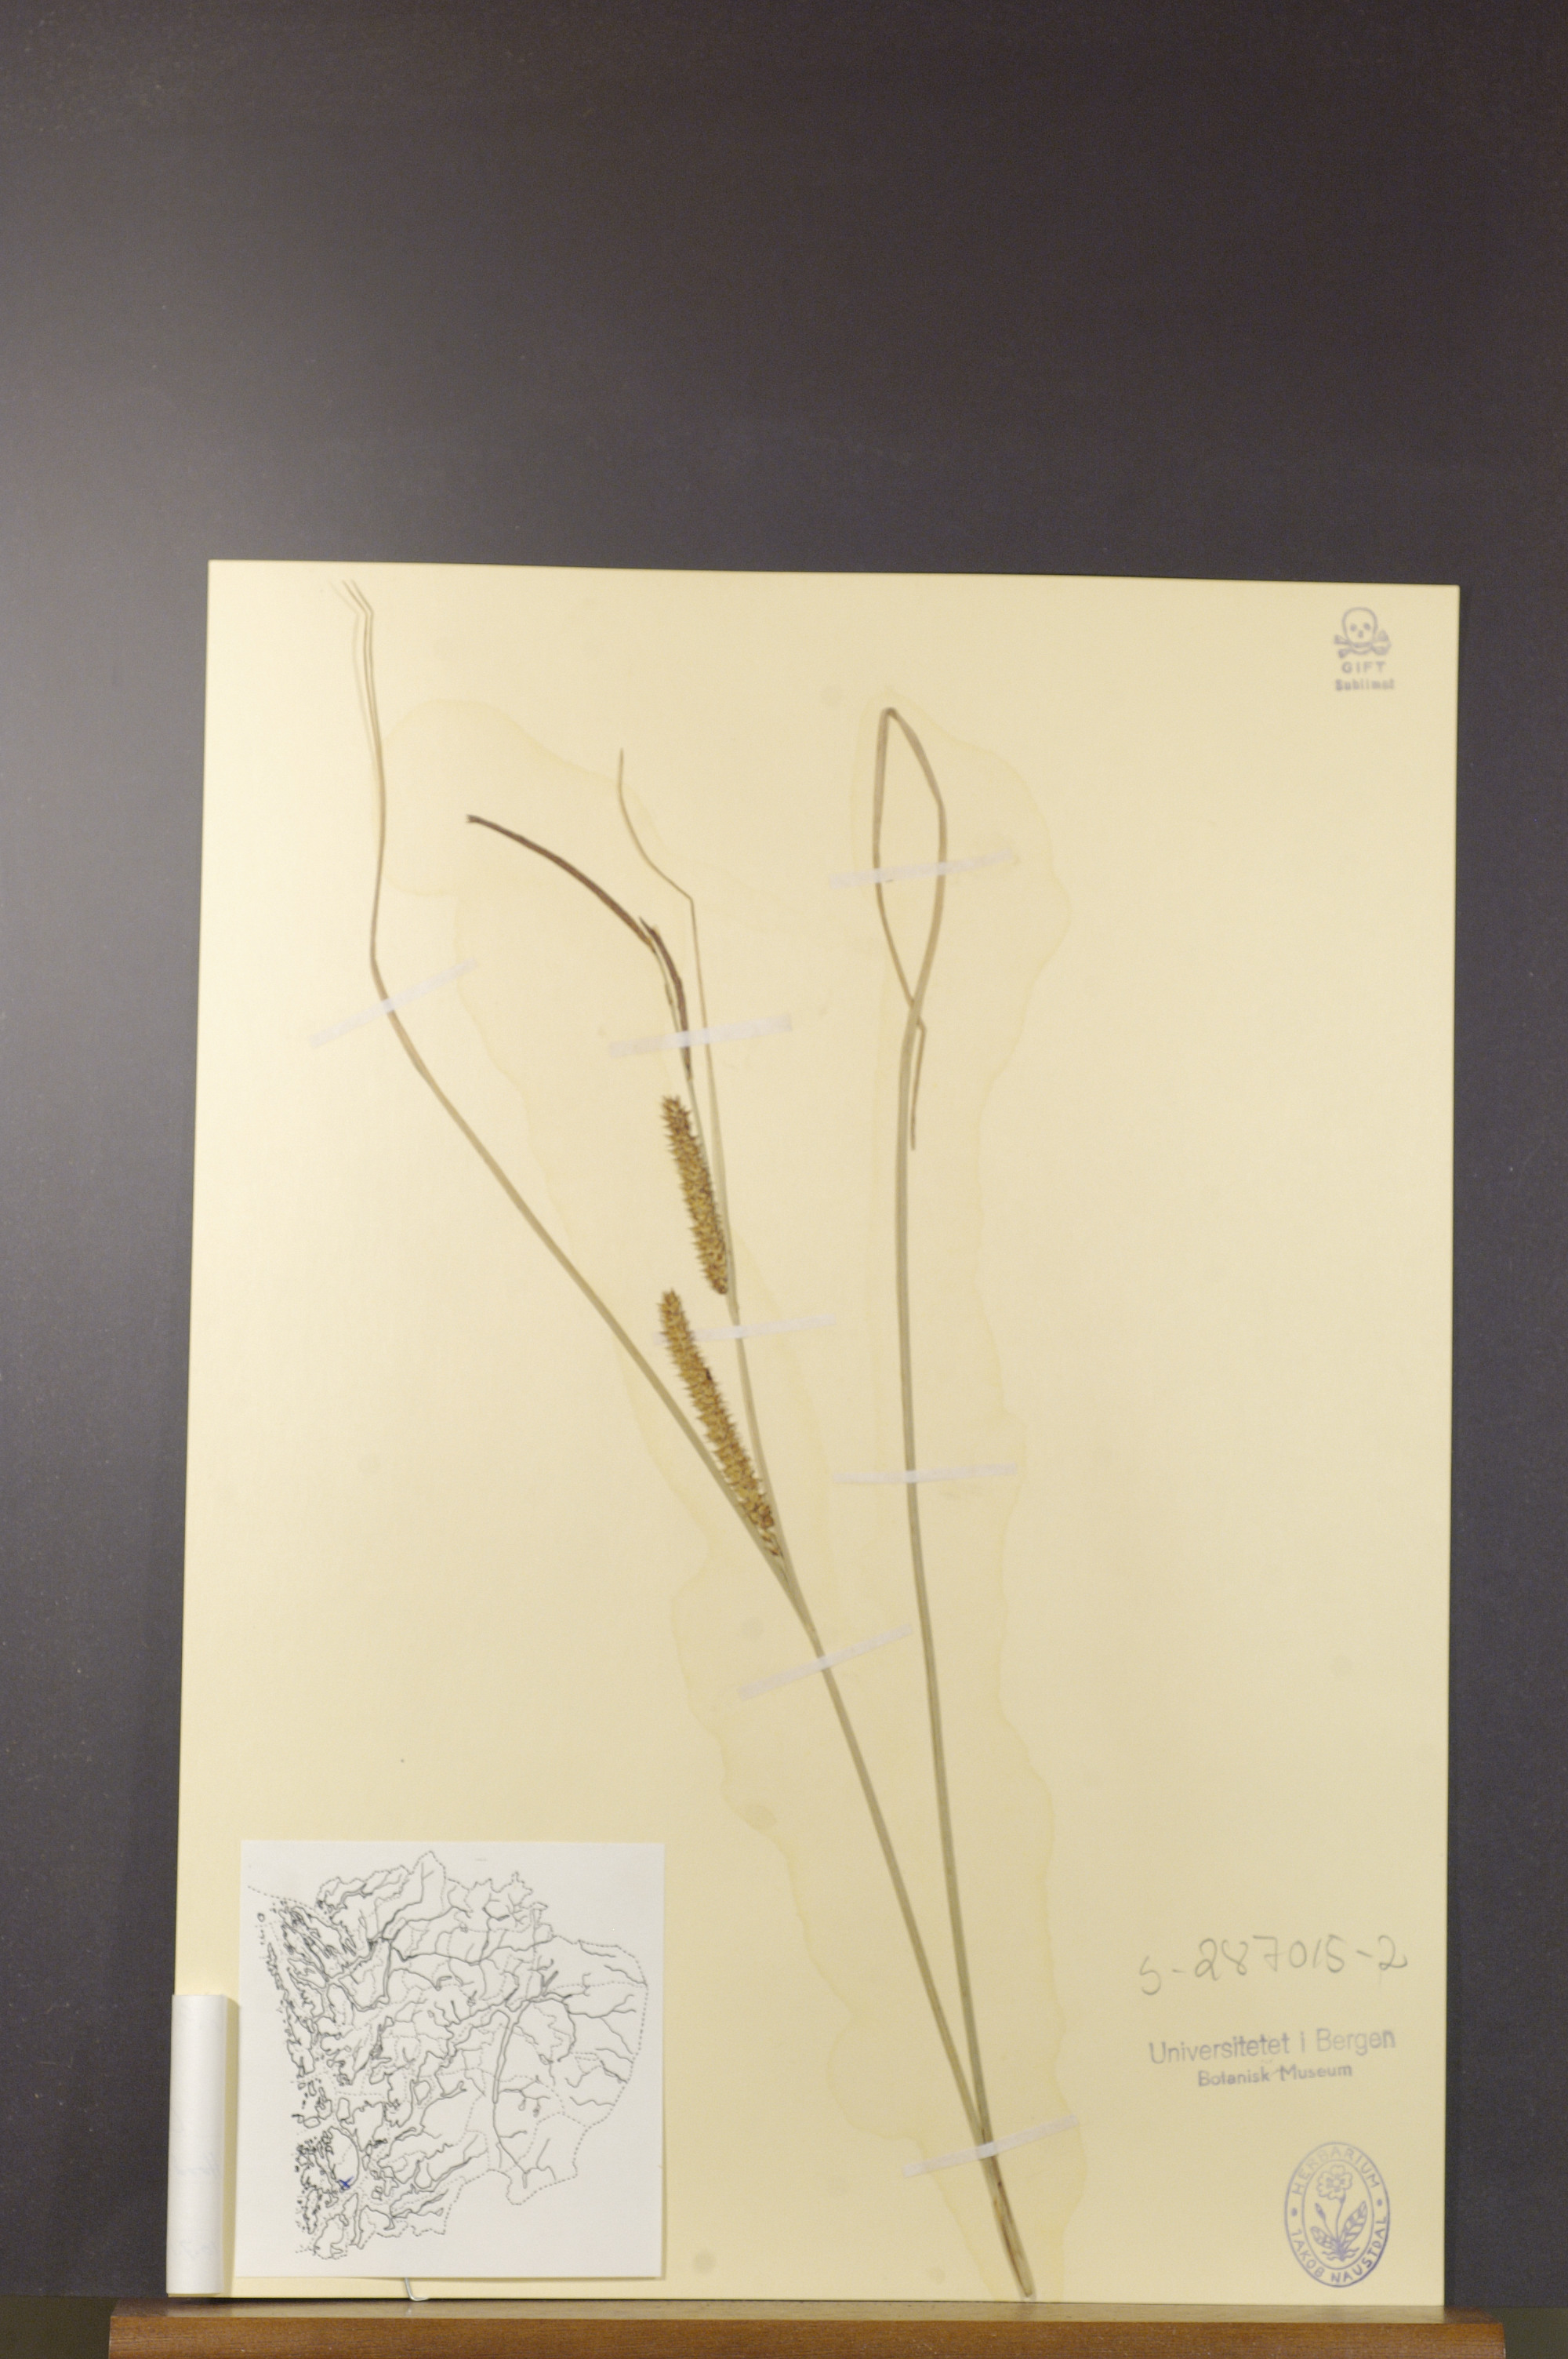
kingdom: Plantae
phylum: Tracheophyta
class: Liliopsida
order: Poales
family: Cyperaceae
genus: Carex
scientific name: Carex rostrata
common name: Bottle sedge
